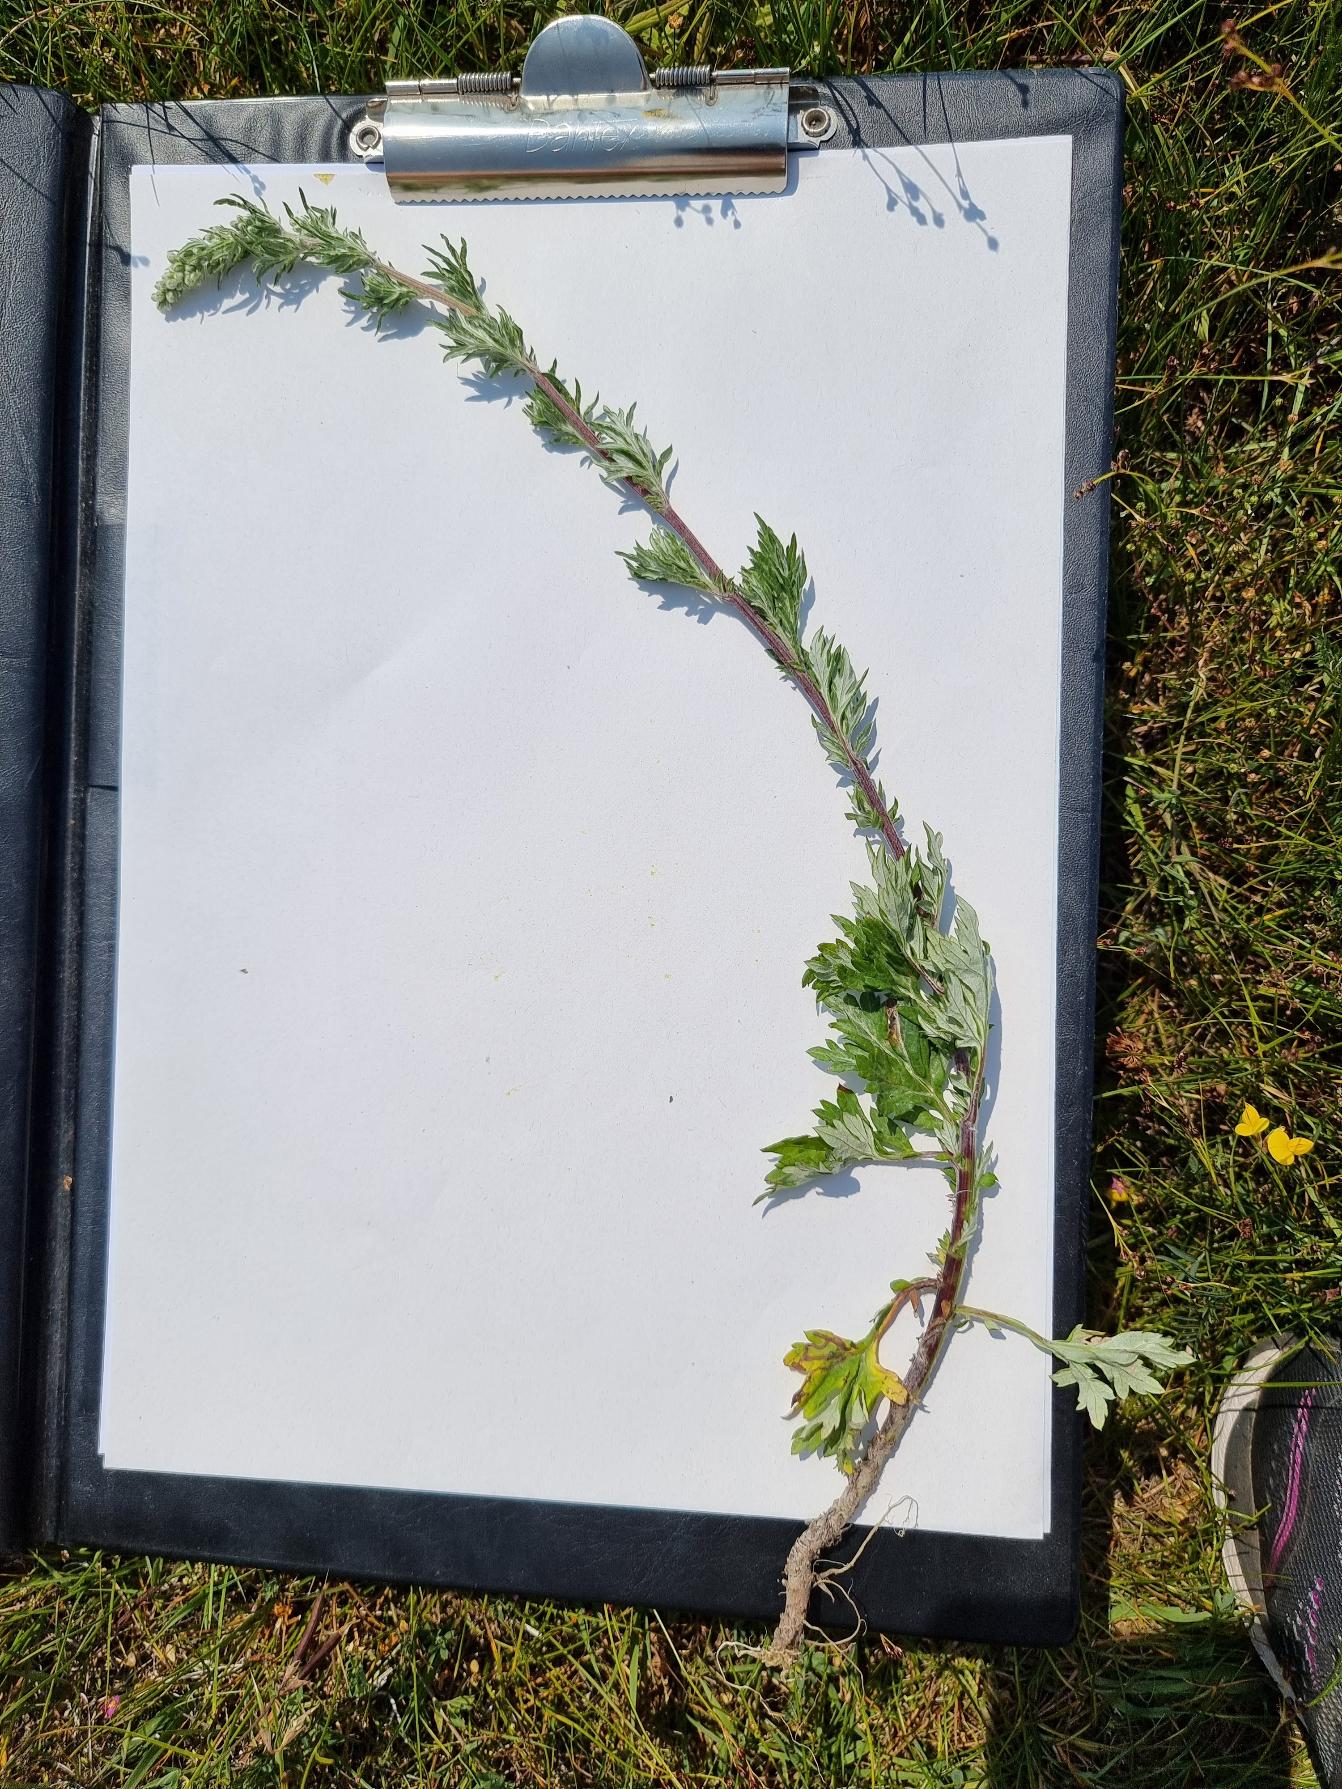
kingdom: Plantae
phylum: Tracheophyta
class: Magnoliopsida
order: Asterales
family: Asteraceae
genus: Artemisia
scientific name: Artemisia vulgaris
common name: Grå-bynke
